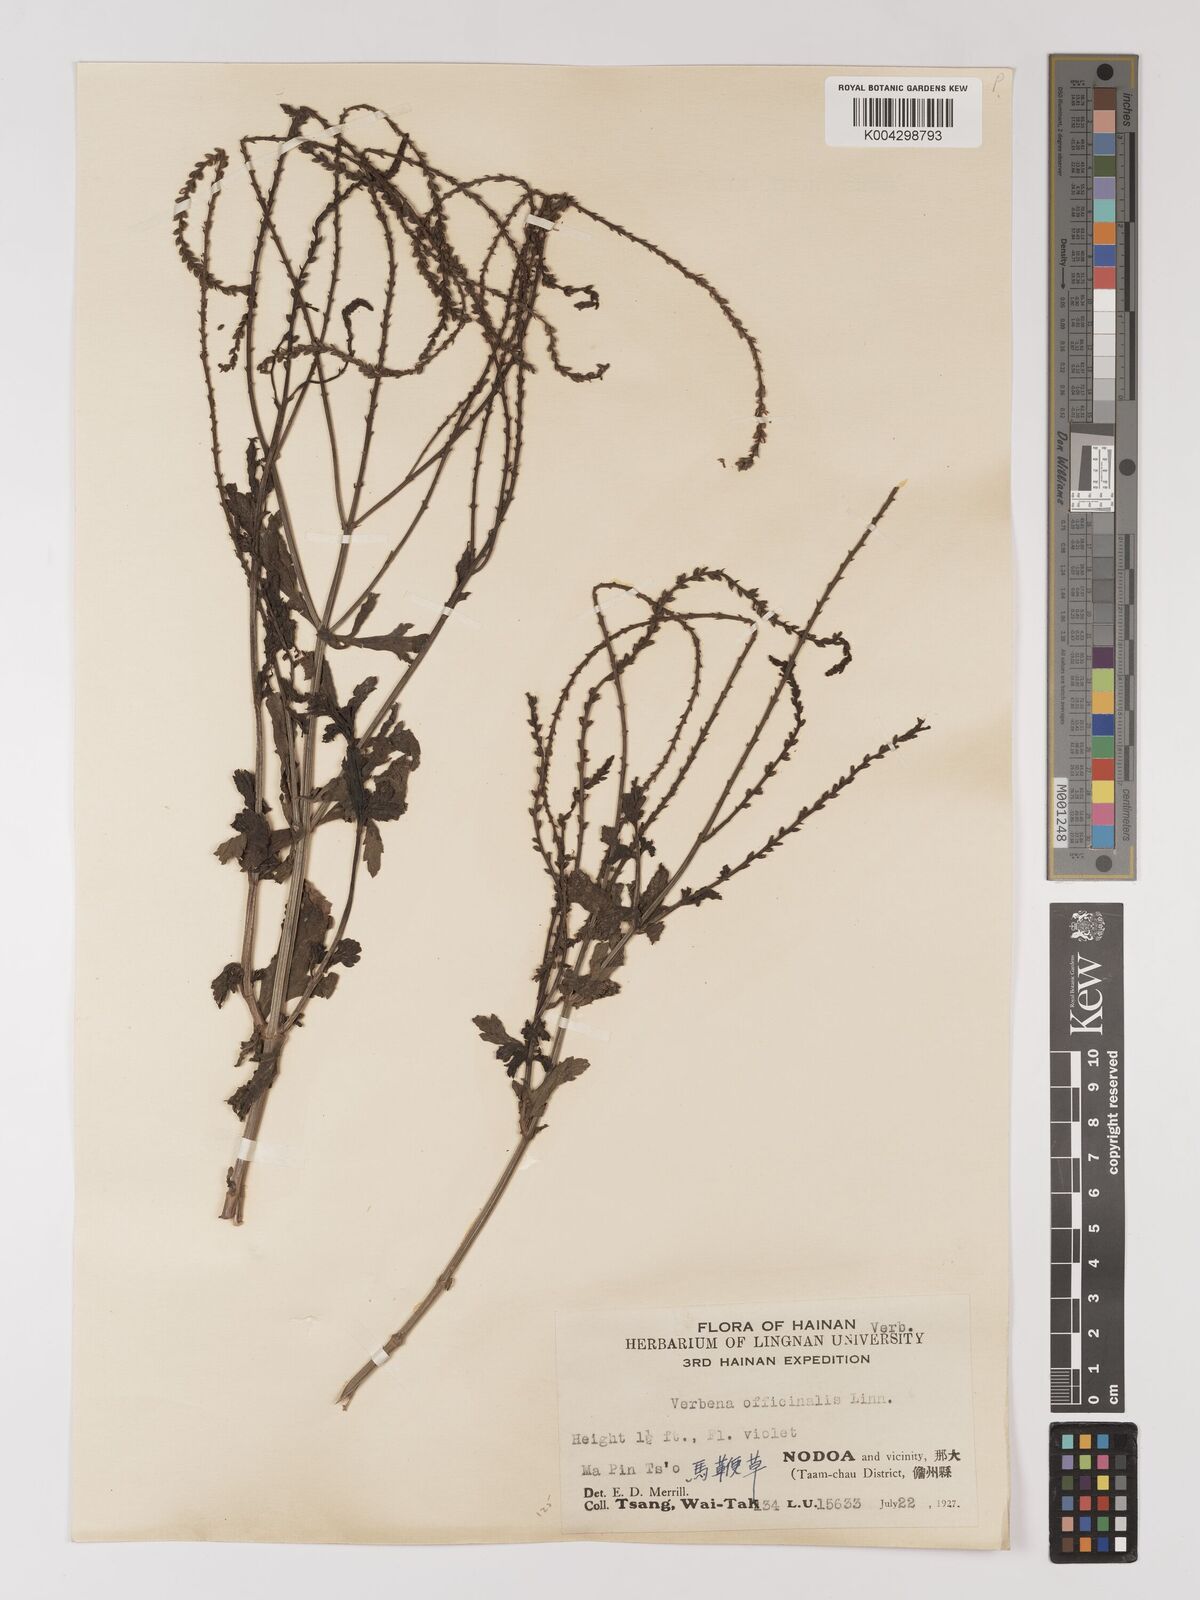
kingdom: Plantae
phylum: Tracheophyta
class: Magnoliopsida
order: Lamiales
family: Verbenaceae
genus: Verbena
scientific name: Verbena officinalis
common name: Vervain
